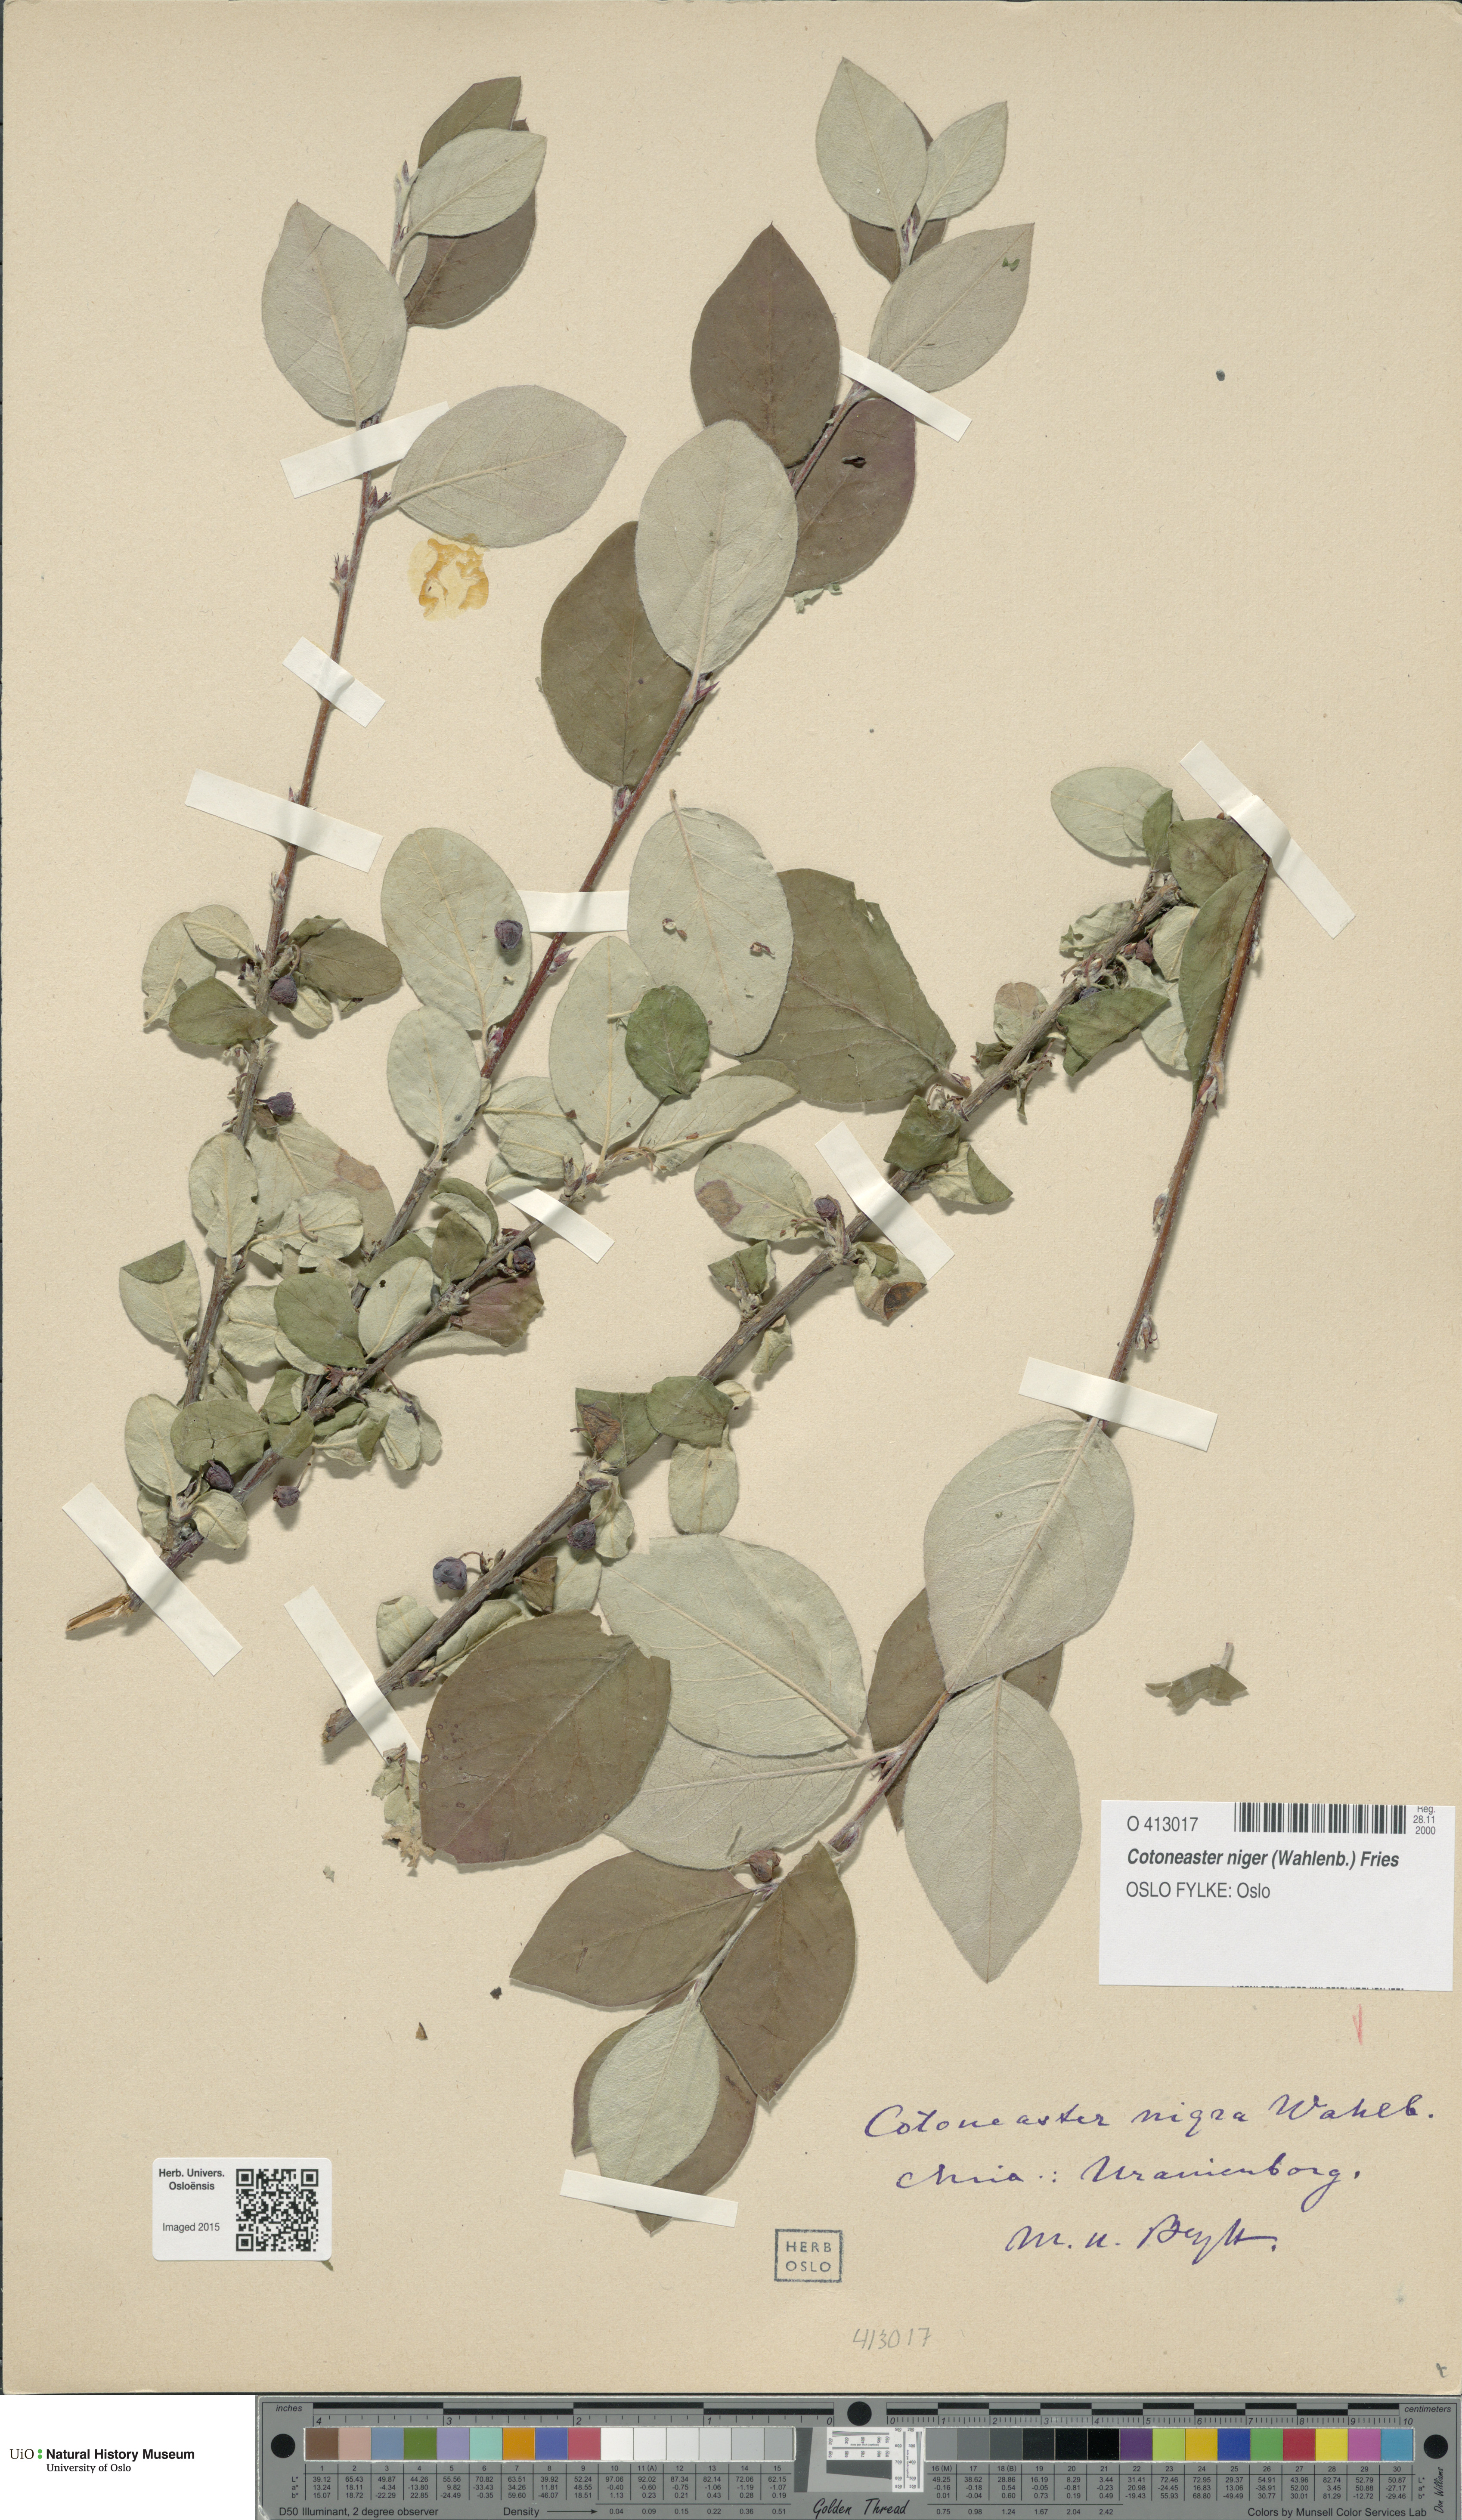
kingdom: Plantae
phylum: Tracheophyta
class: Magnoliopsida
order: Rosales
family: Rosaceae
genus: Cotoneaster
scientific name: Cotoneaster niger
